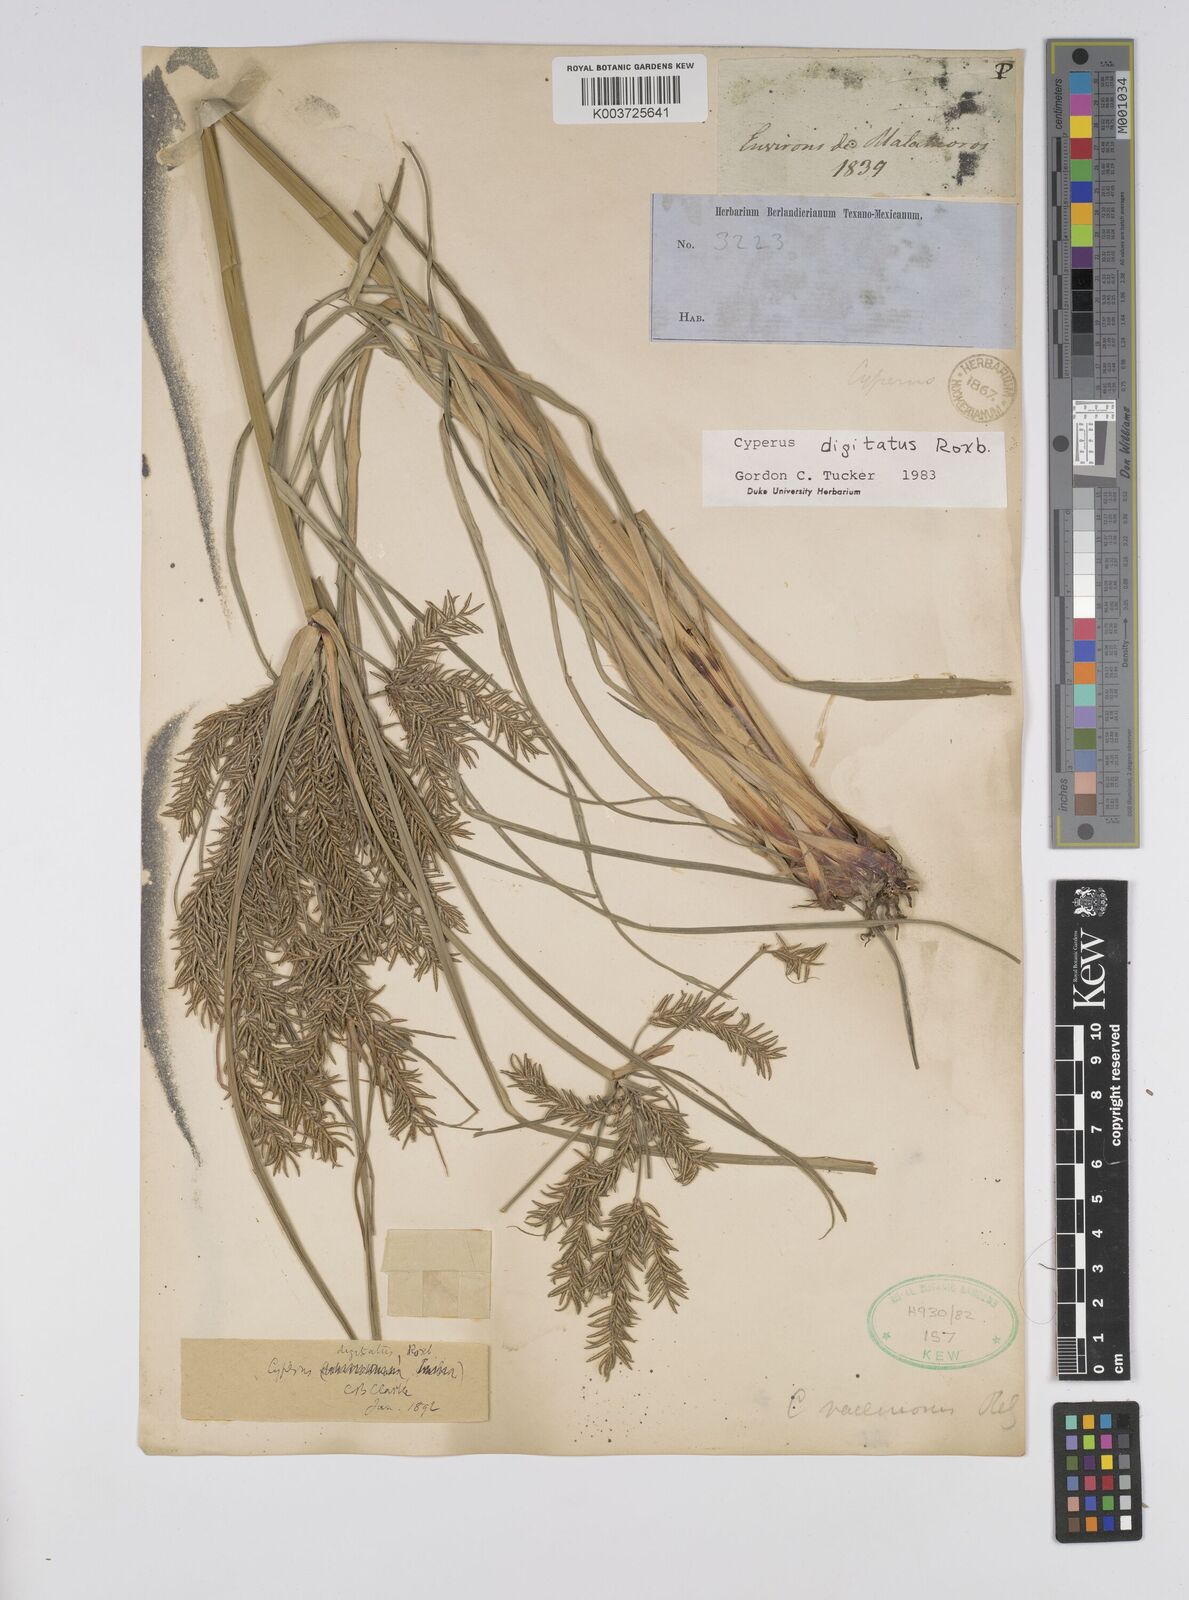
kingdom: Plantae
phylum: Tracheophyta
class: Liliopsida
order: Poales
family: Cyperaceae
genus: Cyperus
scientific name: Cyperus digitatus
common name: Finger flatsedge
